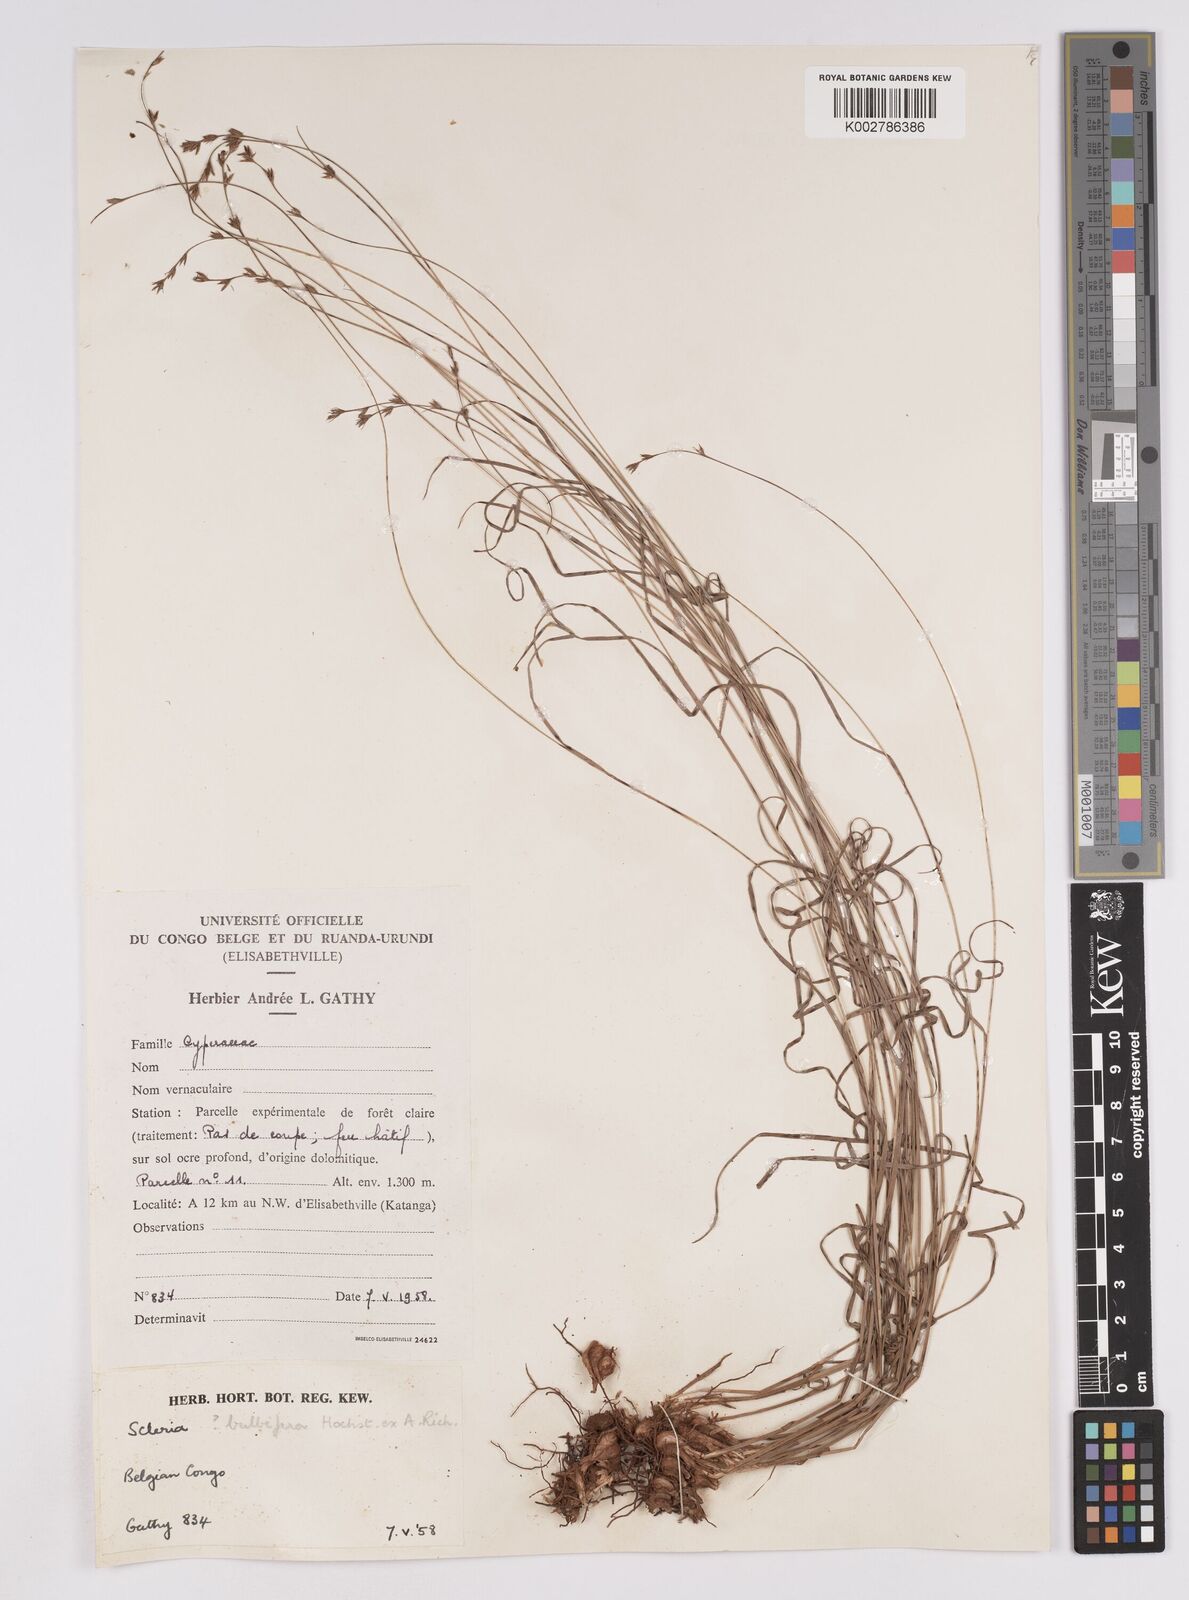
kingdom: Plantae
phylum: Tracheophyta
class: Liliopsida
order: Poales
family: Cyperaceae
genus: Scleria
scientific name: Scleria bulbifera
